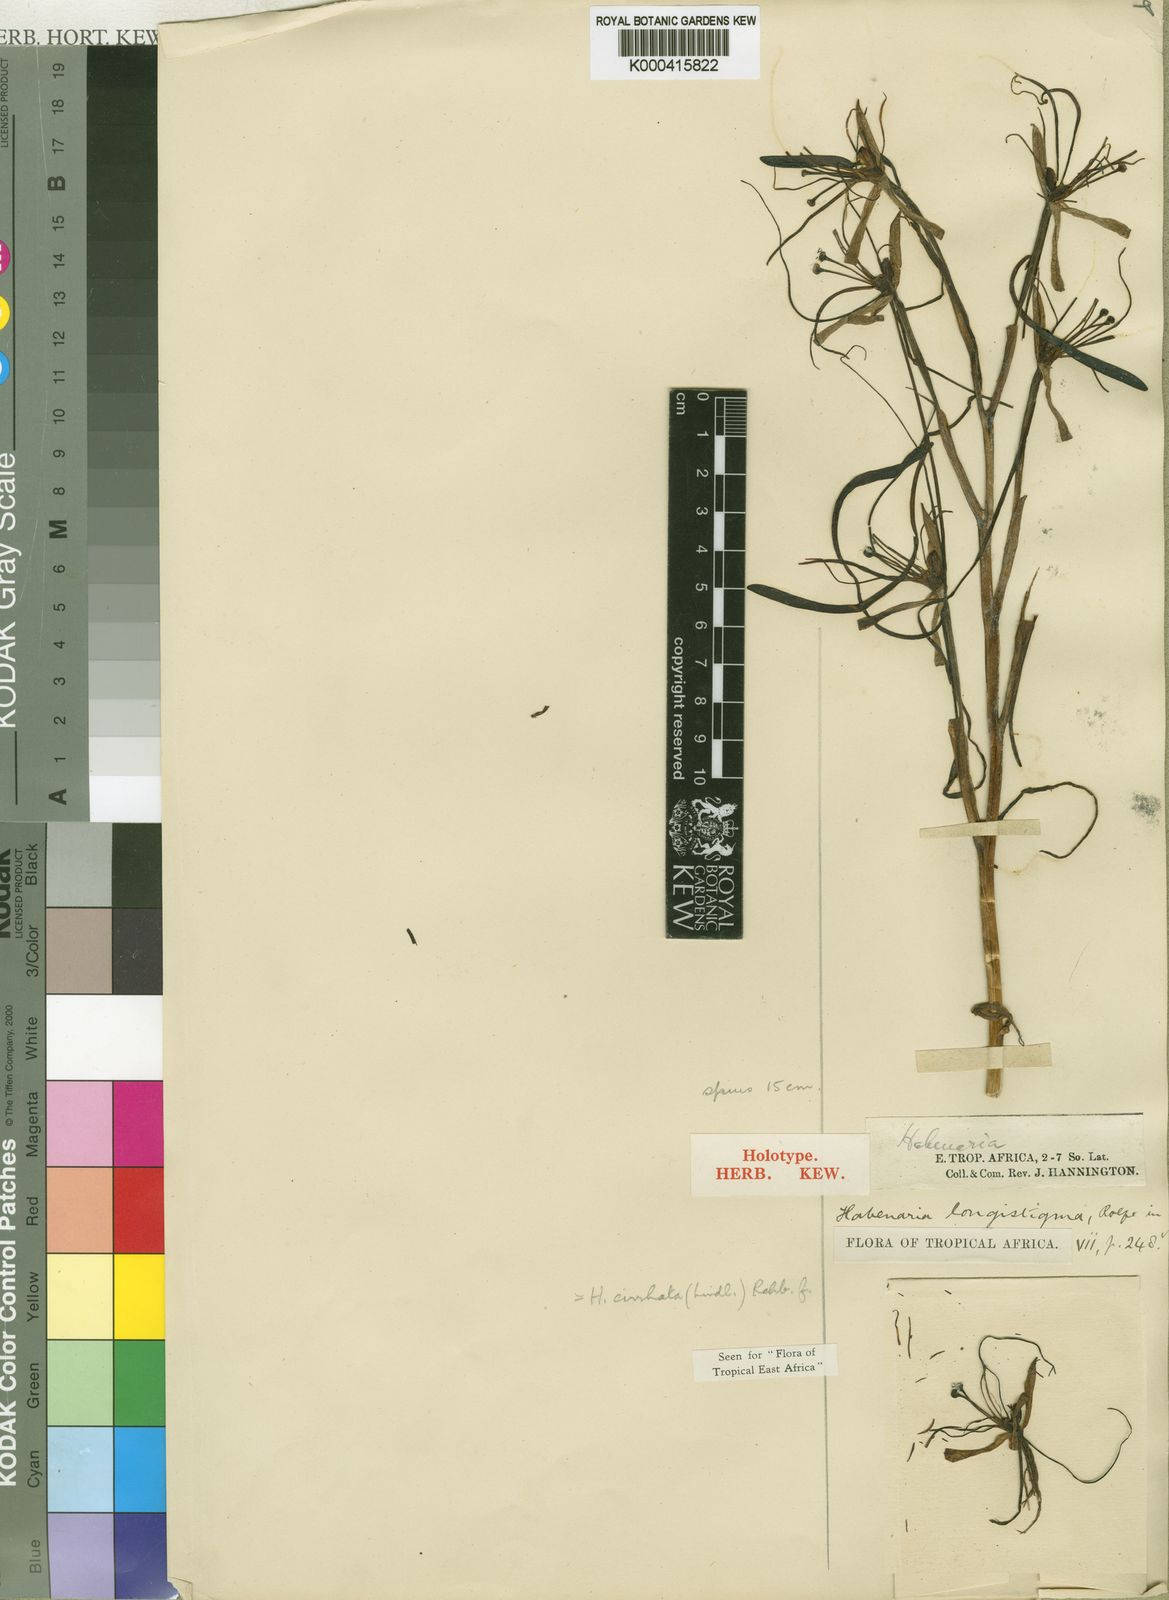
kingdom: Plantae
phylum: Tracheophyta
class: Liliopsida
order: Asparagales
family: Orchidaceae
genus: Habenaria
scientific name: Habenaria cirrhata
